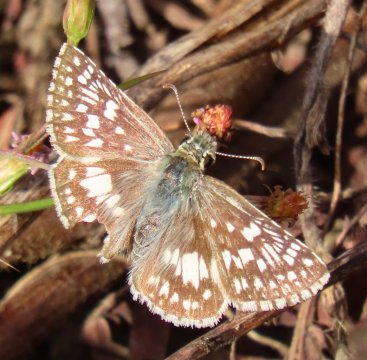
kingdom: Animalia
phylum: Arthropoda
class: Insecta
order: Lepidoptera
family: Hesperiidae
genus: Pyrgus
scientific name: Pyrgus communis
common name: Common Checkered-Skipper
